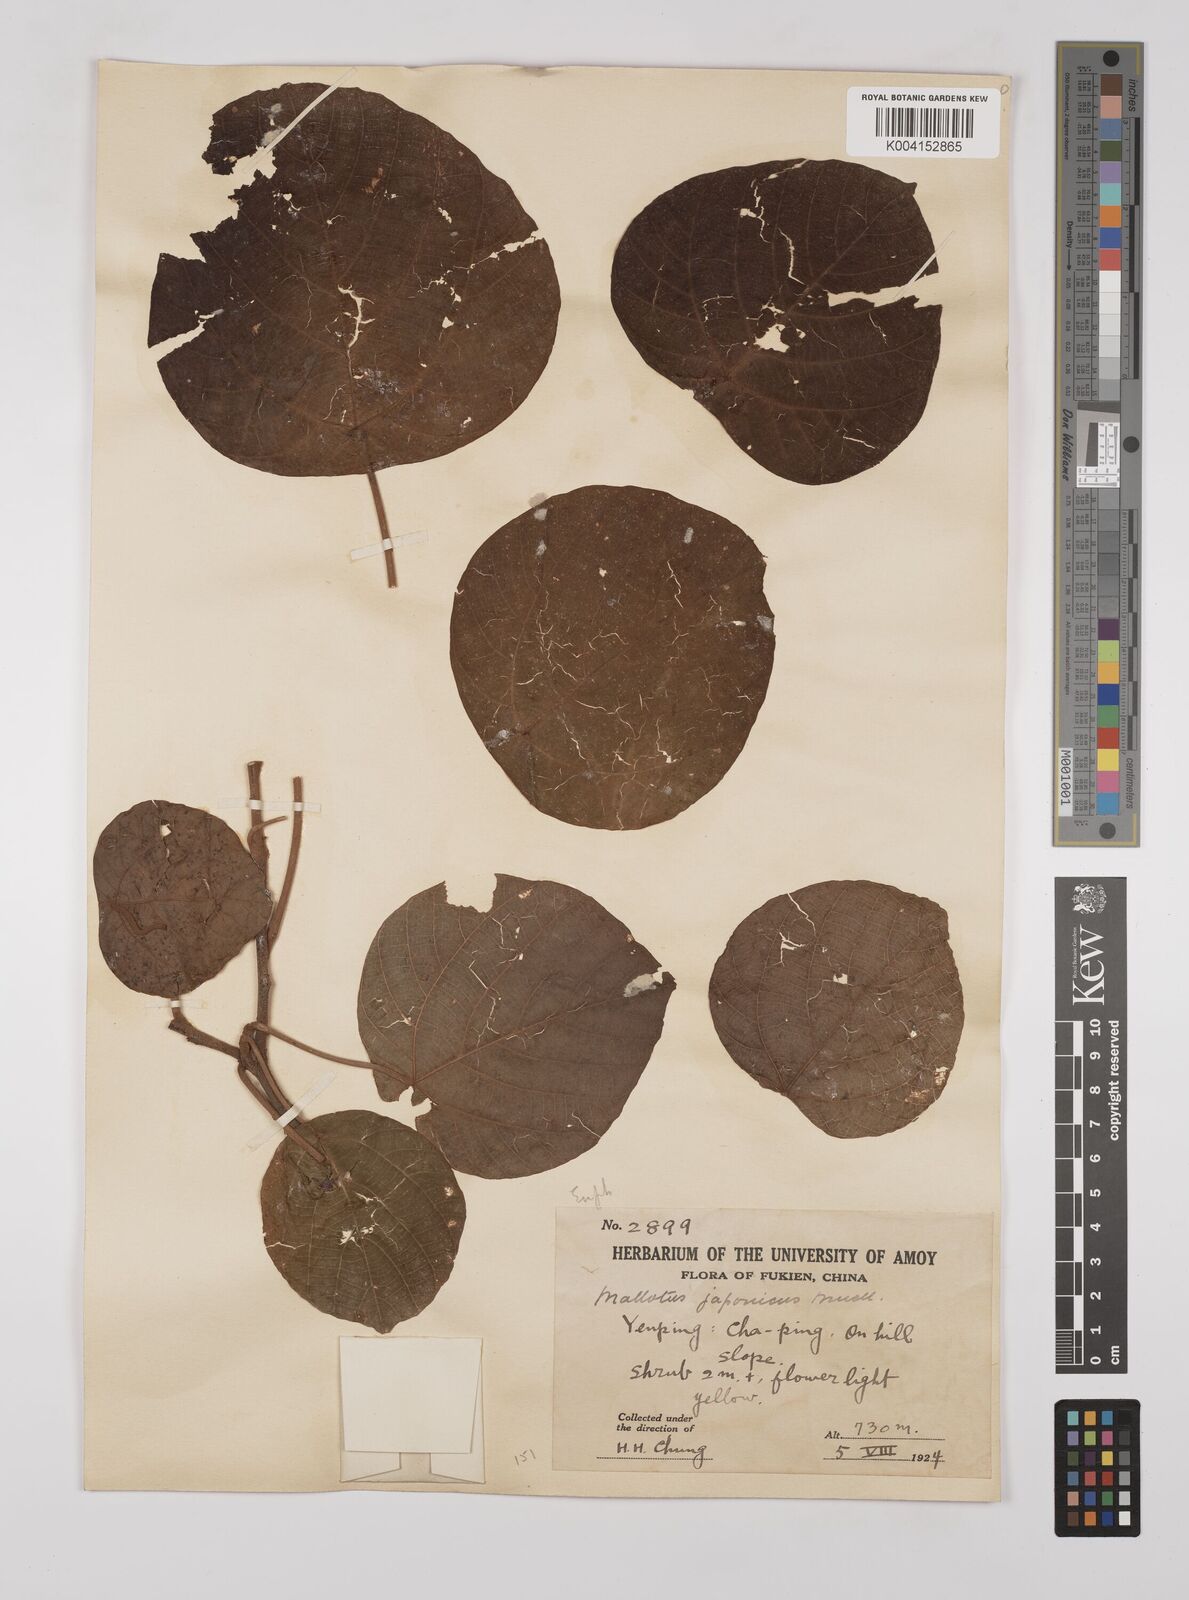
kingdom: Plantae
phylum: Tracheophyta
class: Magnoliopsida
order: Malpighiales
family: Euphorbiaceae
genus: Mallotus
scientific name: Mallotus lianus
